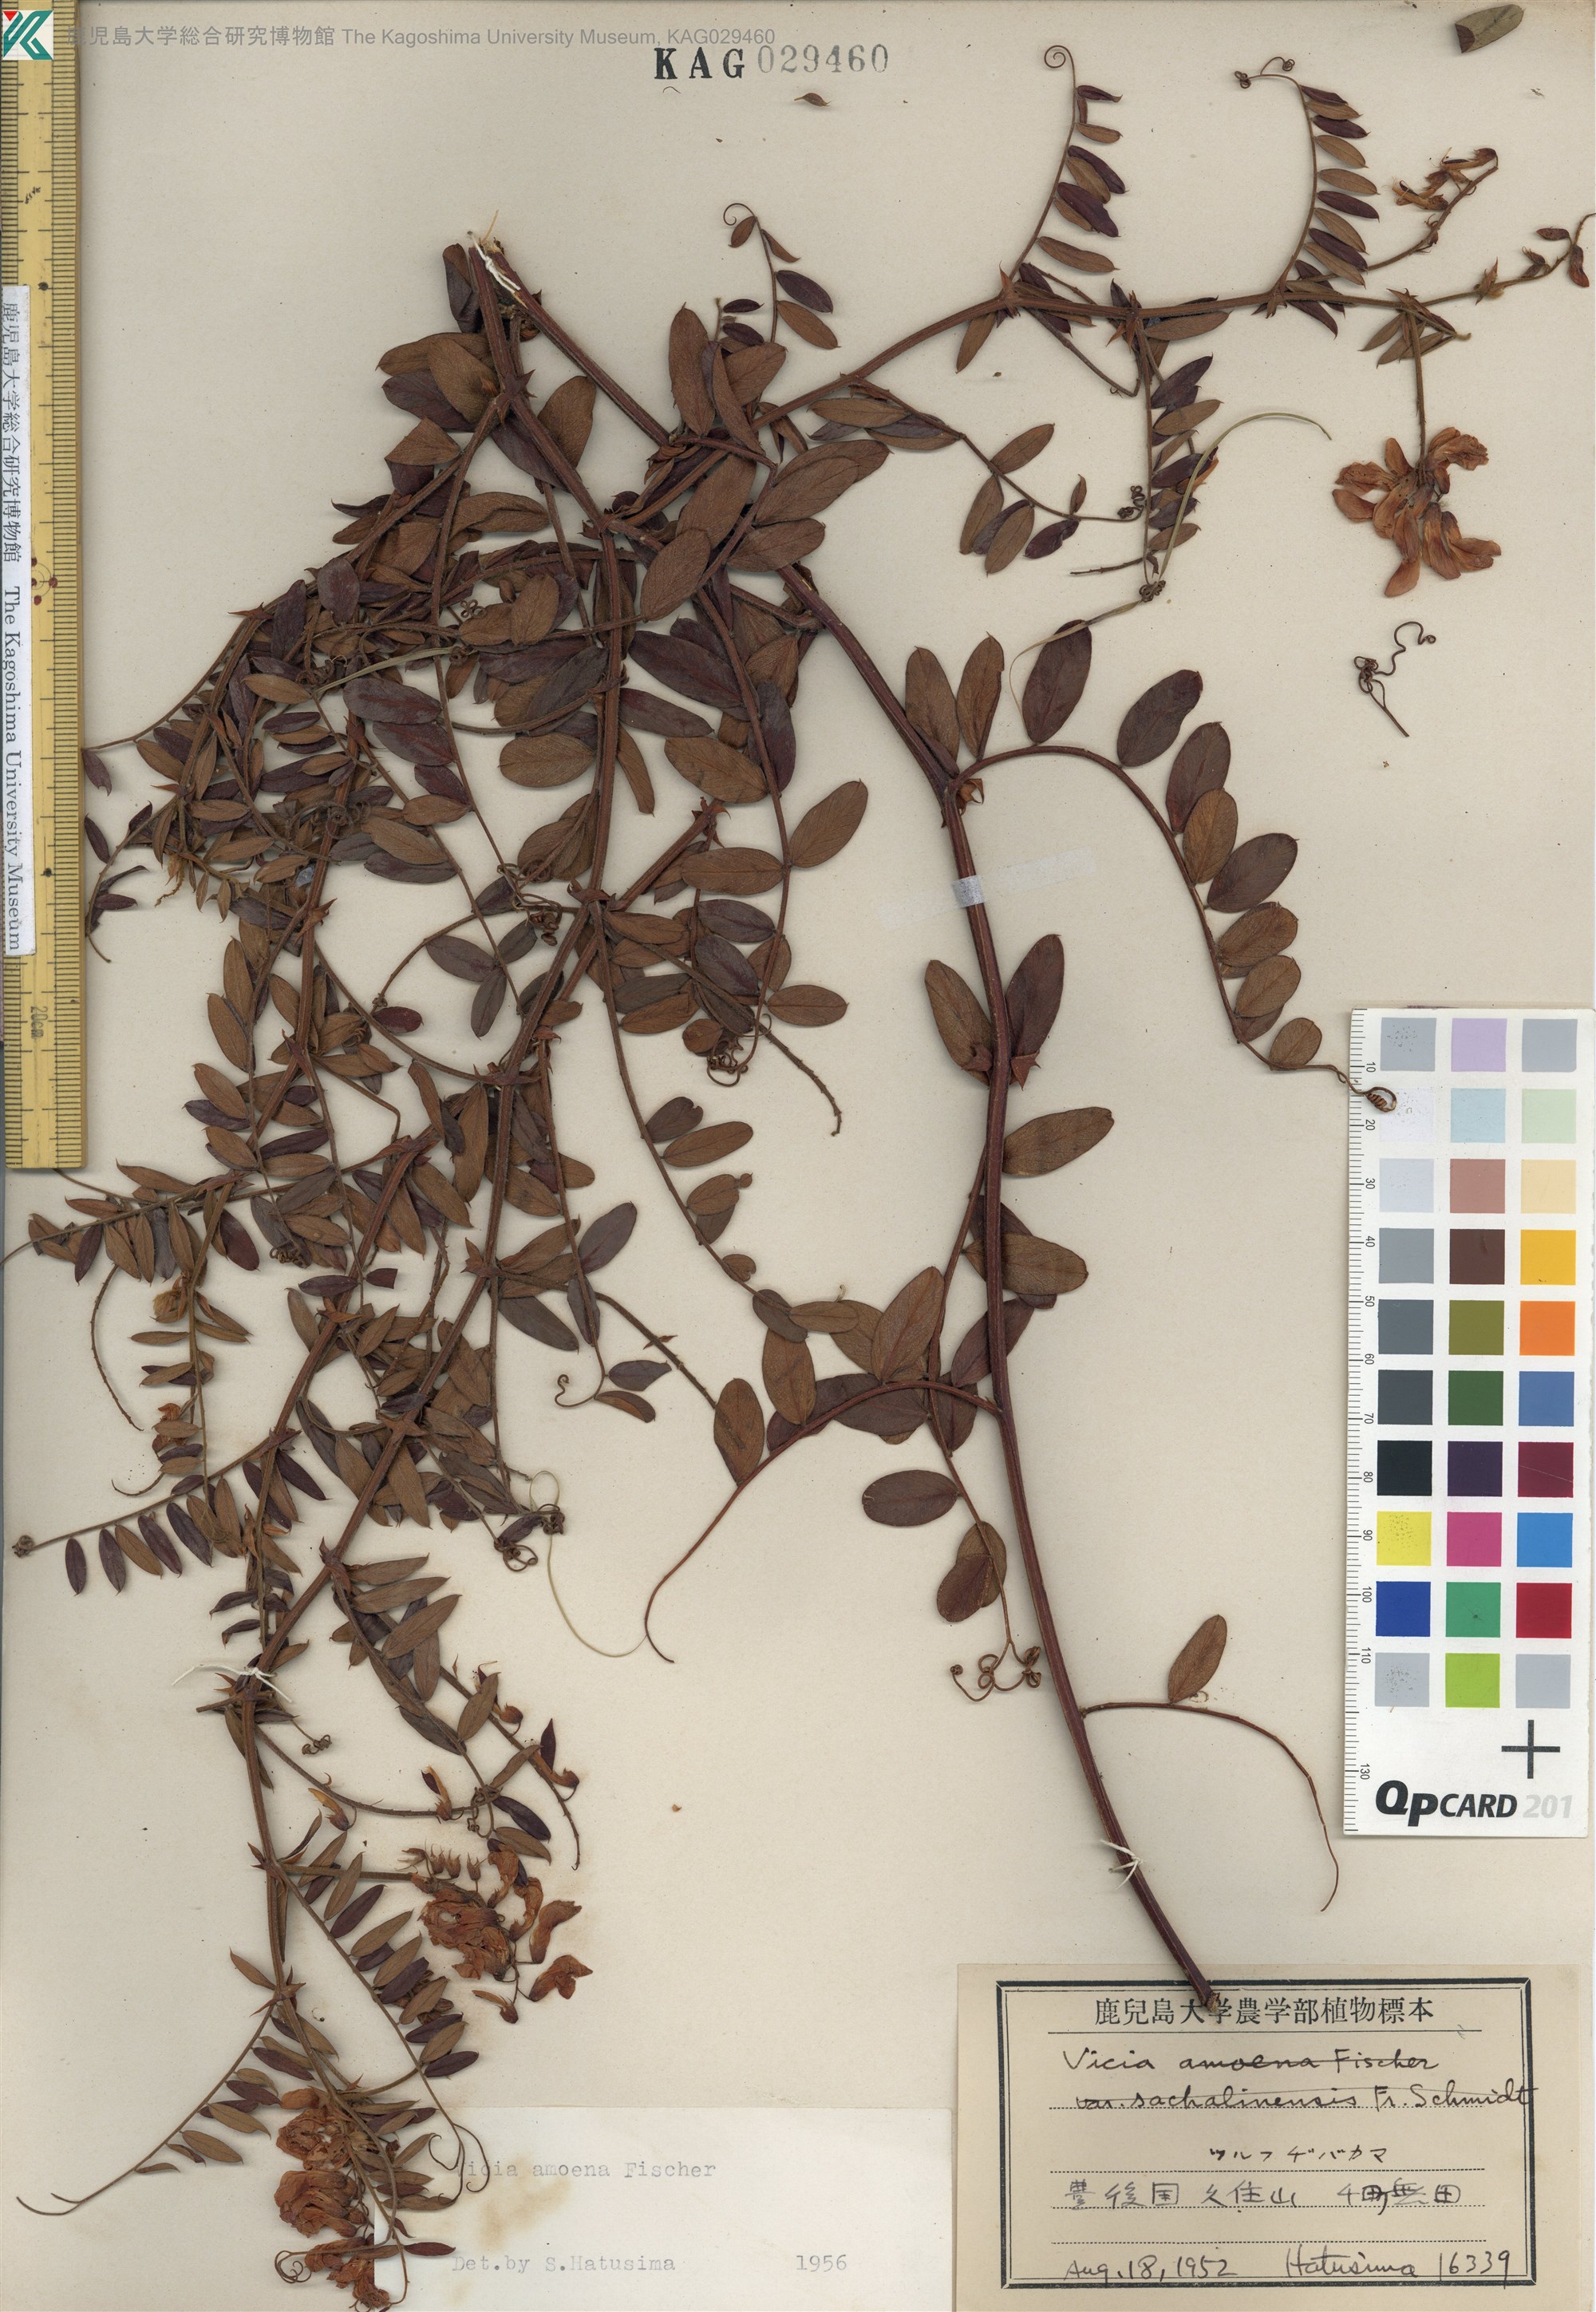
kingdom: Plantae
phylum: Tracheophyta
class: Magnoliopsida
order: Fabales
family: Fabaceae
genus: Vicia
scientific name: Vicia amoena
